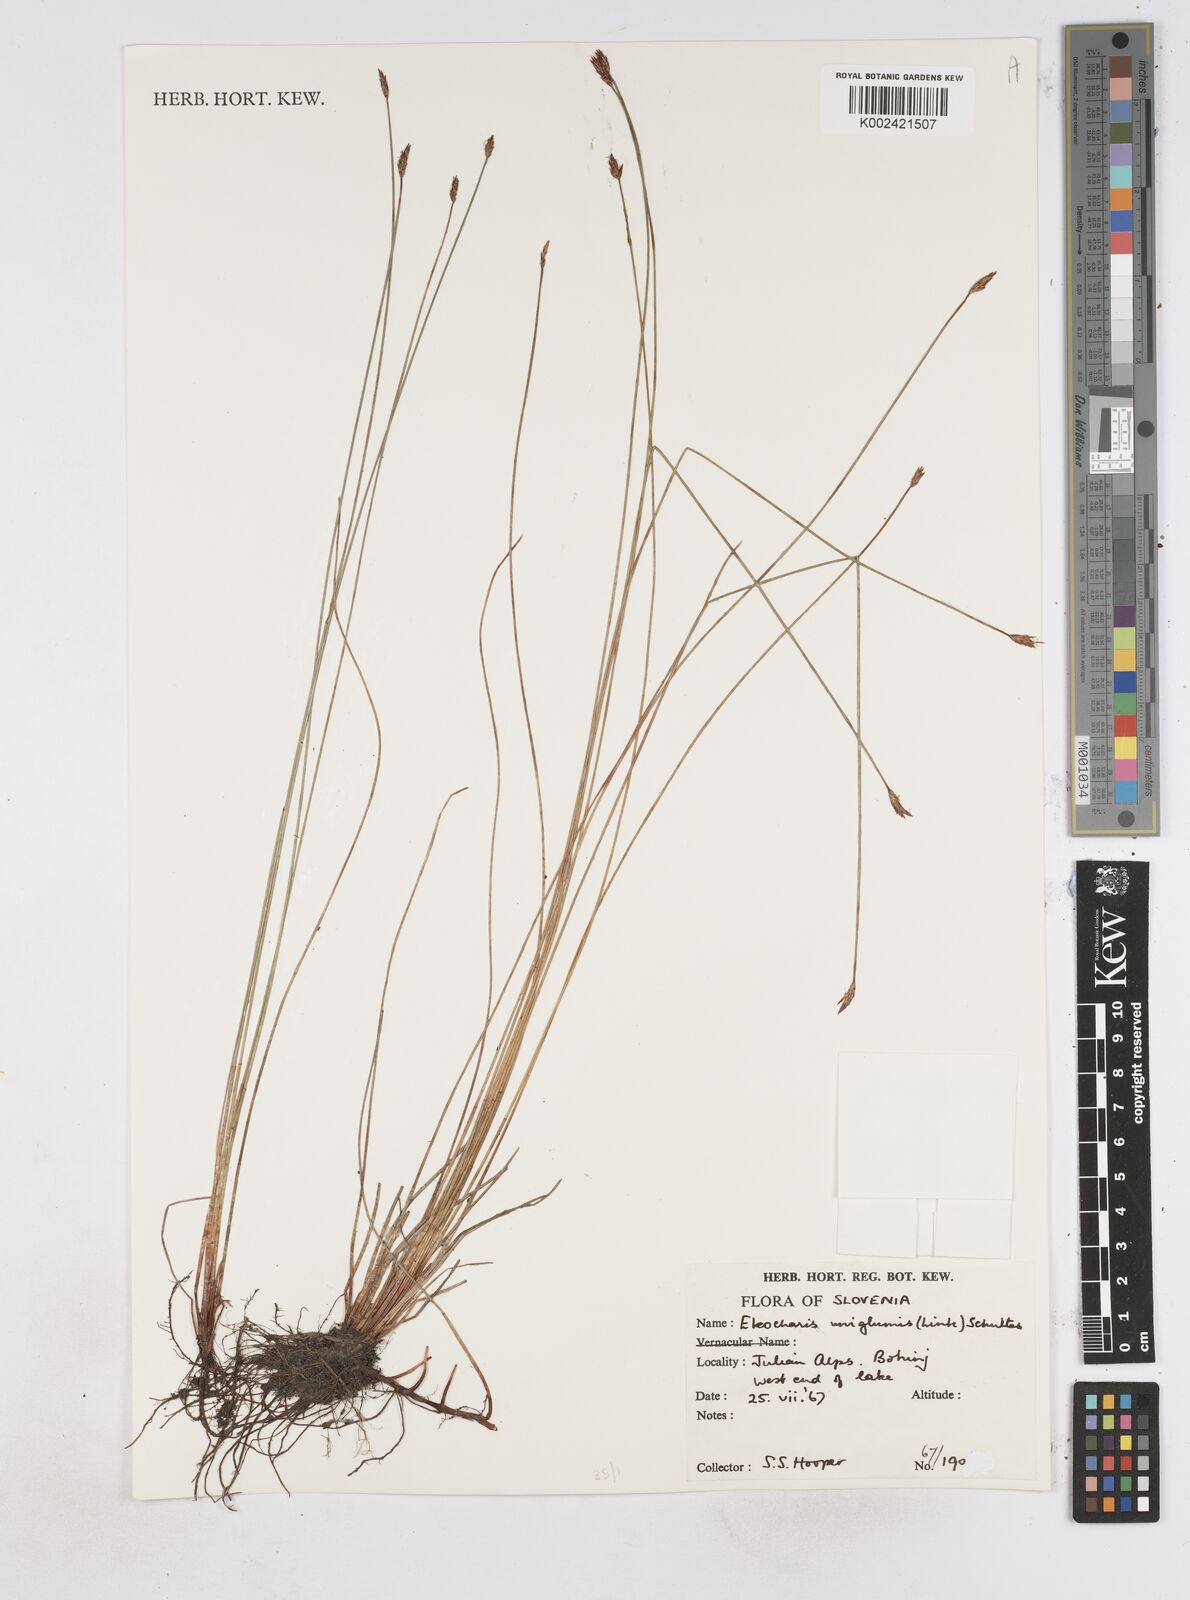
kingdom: Plantae
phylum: Tracheophyta
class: Liliopsida
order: Poales
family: Cyperaceae
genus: Eleocharis
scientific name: Eleocharis uniglumis
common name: Slender spike-rush
